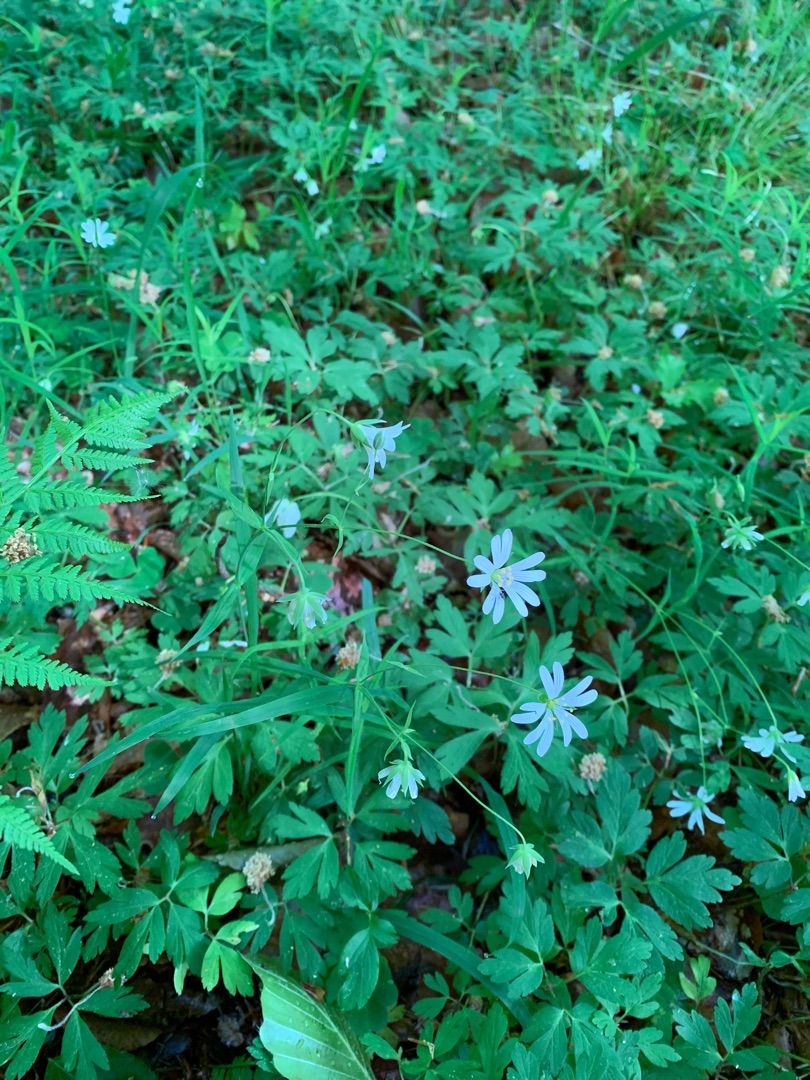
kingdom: Plantae
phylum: Tracheophyta
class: Magnoliopsida
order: Caryophyllales
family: Caryophyllaceae
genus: Rabelera
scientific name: Rabelera holostea
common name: Stor fladstjerne
